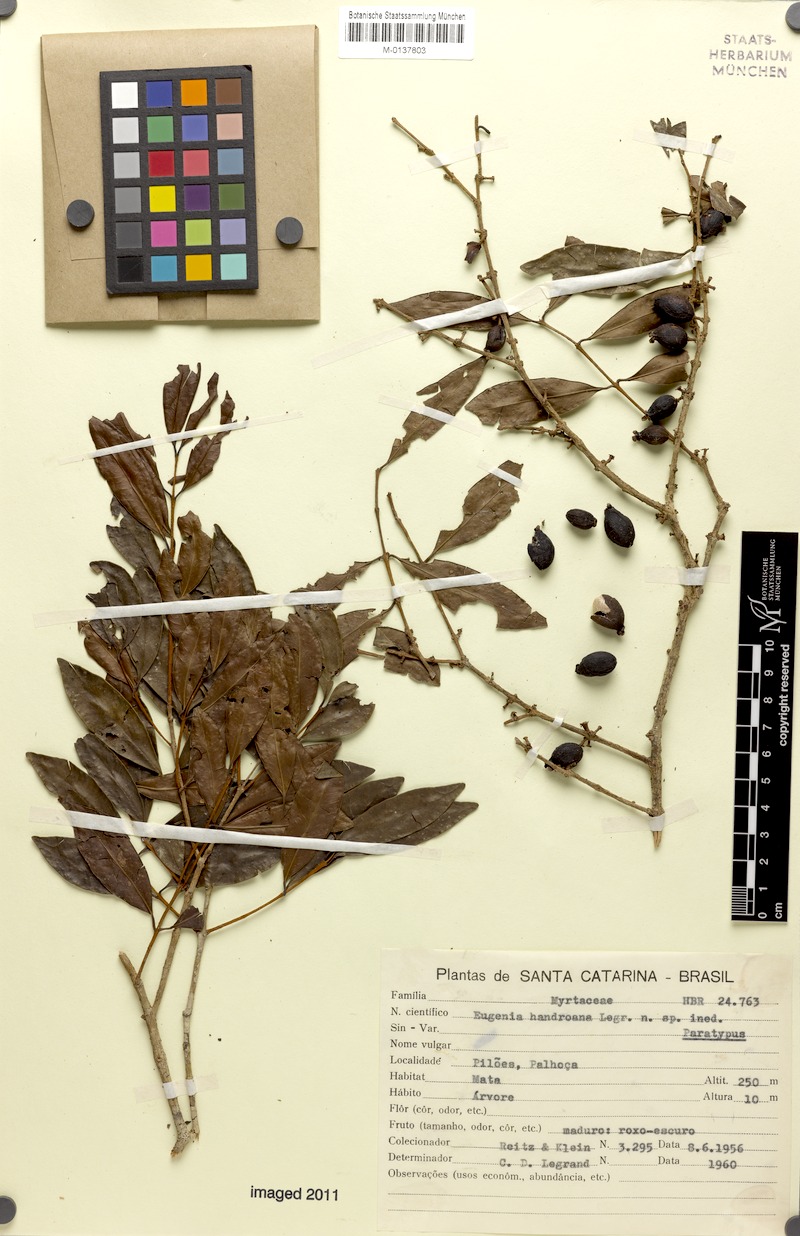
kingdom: Plantae
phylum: Tracheophyta
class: Magnoliopsida
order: Myrtales
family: Myrtaceae
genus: Eugenia
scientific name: Eugenia handroana
